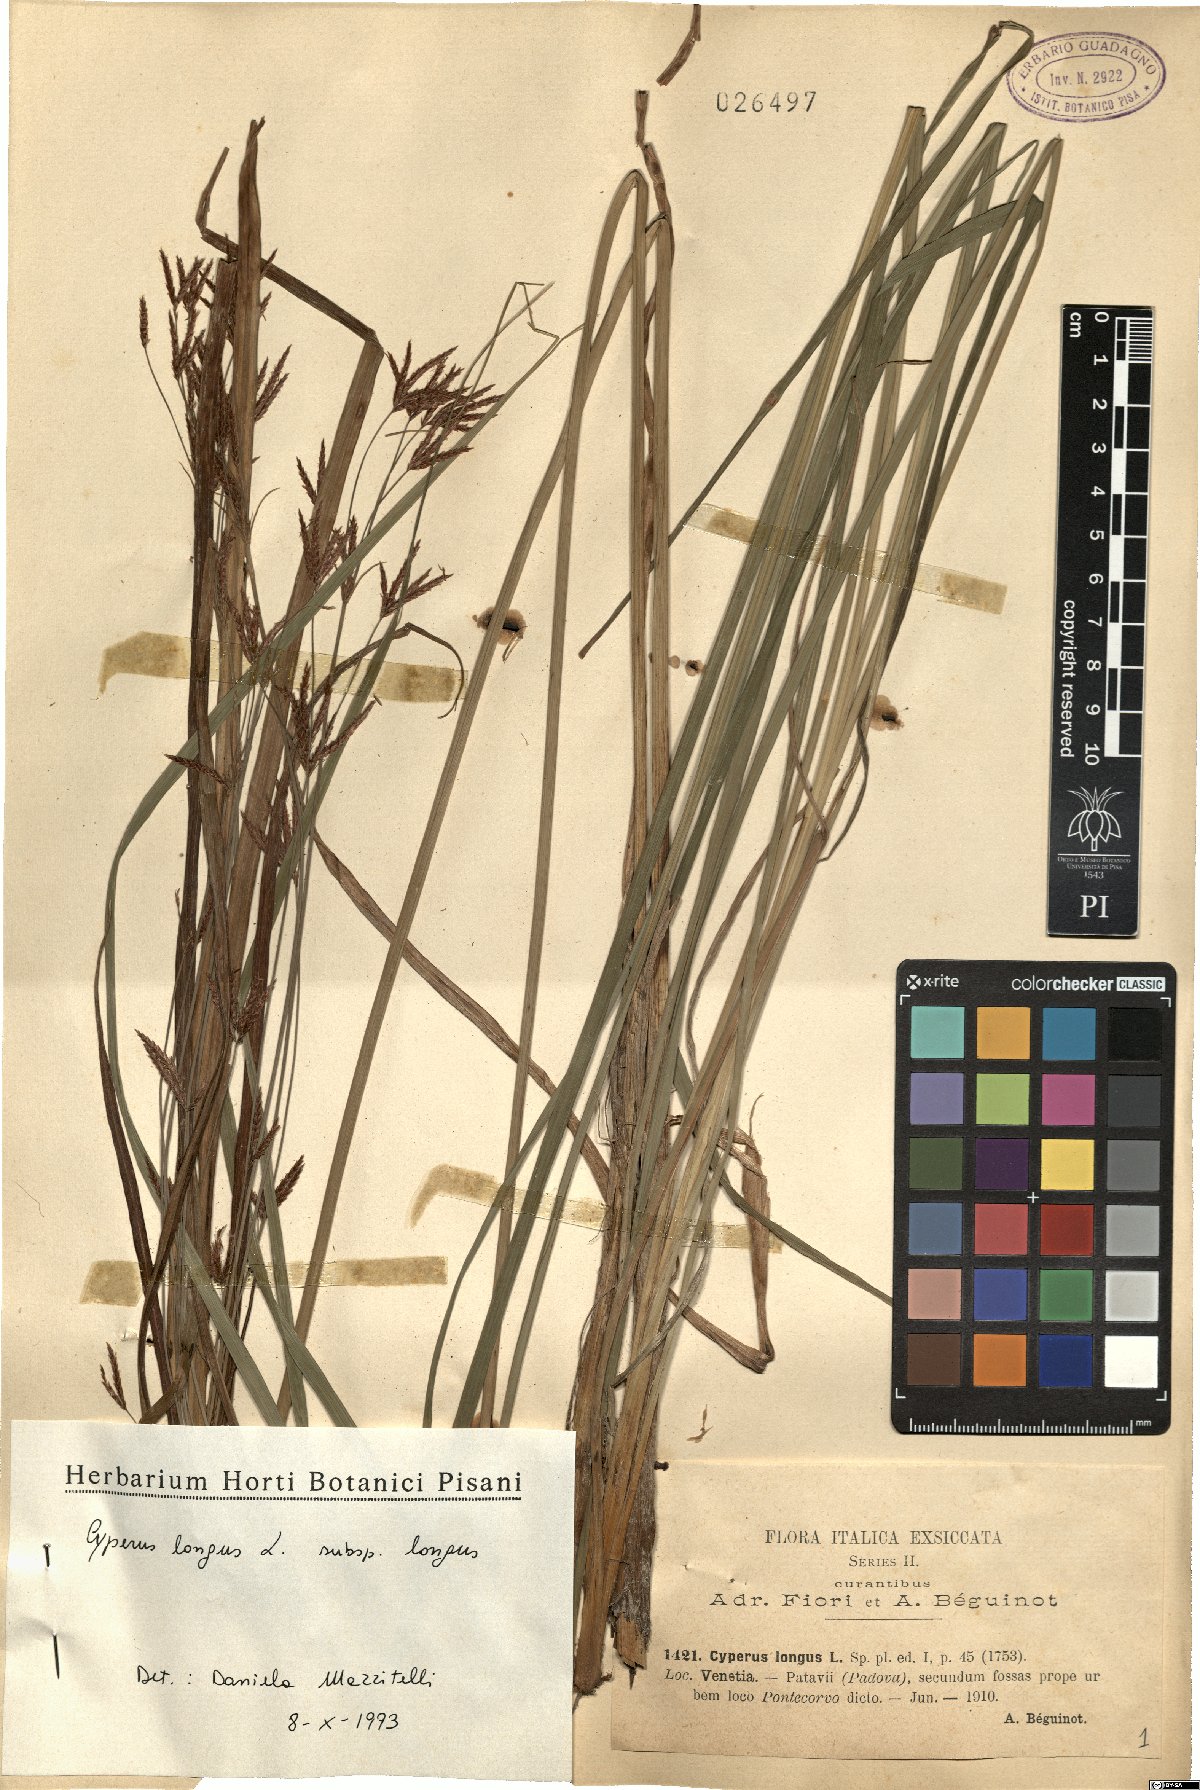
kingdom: Plantae
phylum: Tracheophyta
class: Liliopsida
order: Poales
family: Cyperaceae
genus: Cyperus
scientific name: Cyperus longus
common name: Galingale
